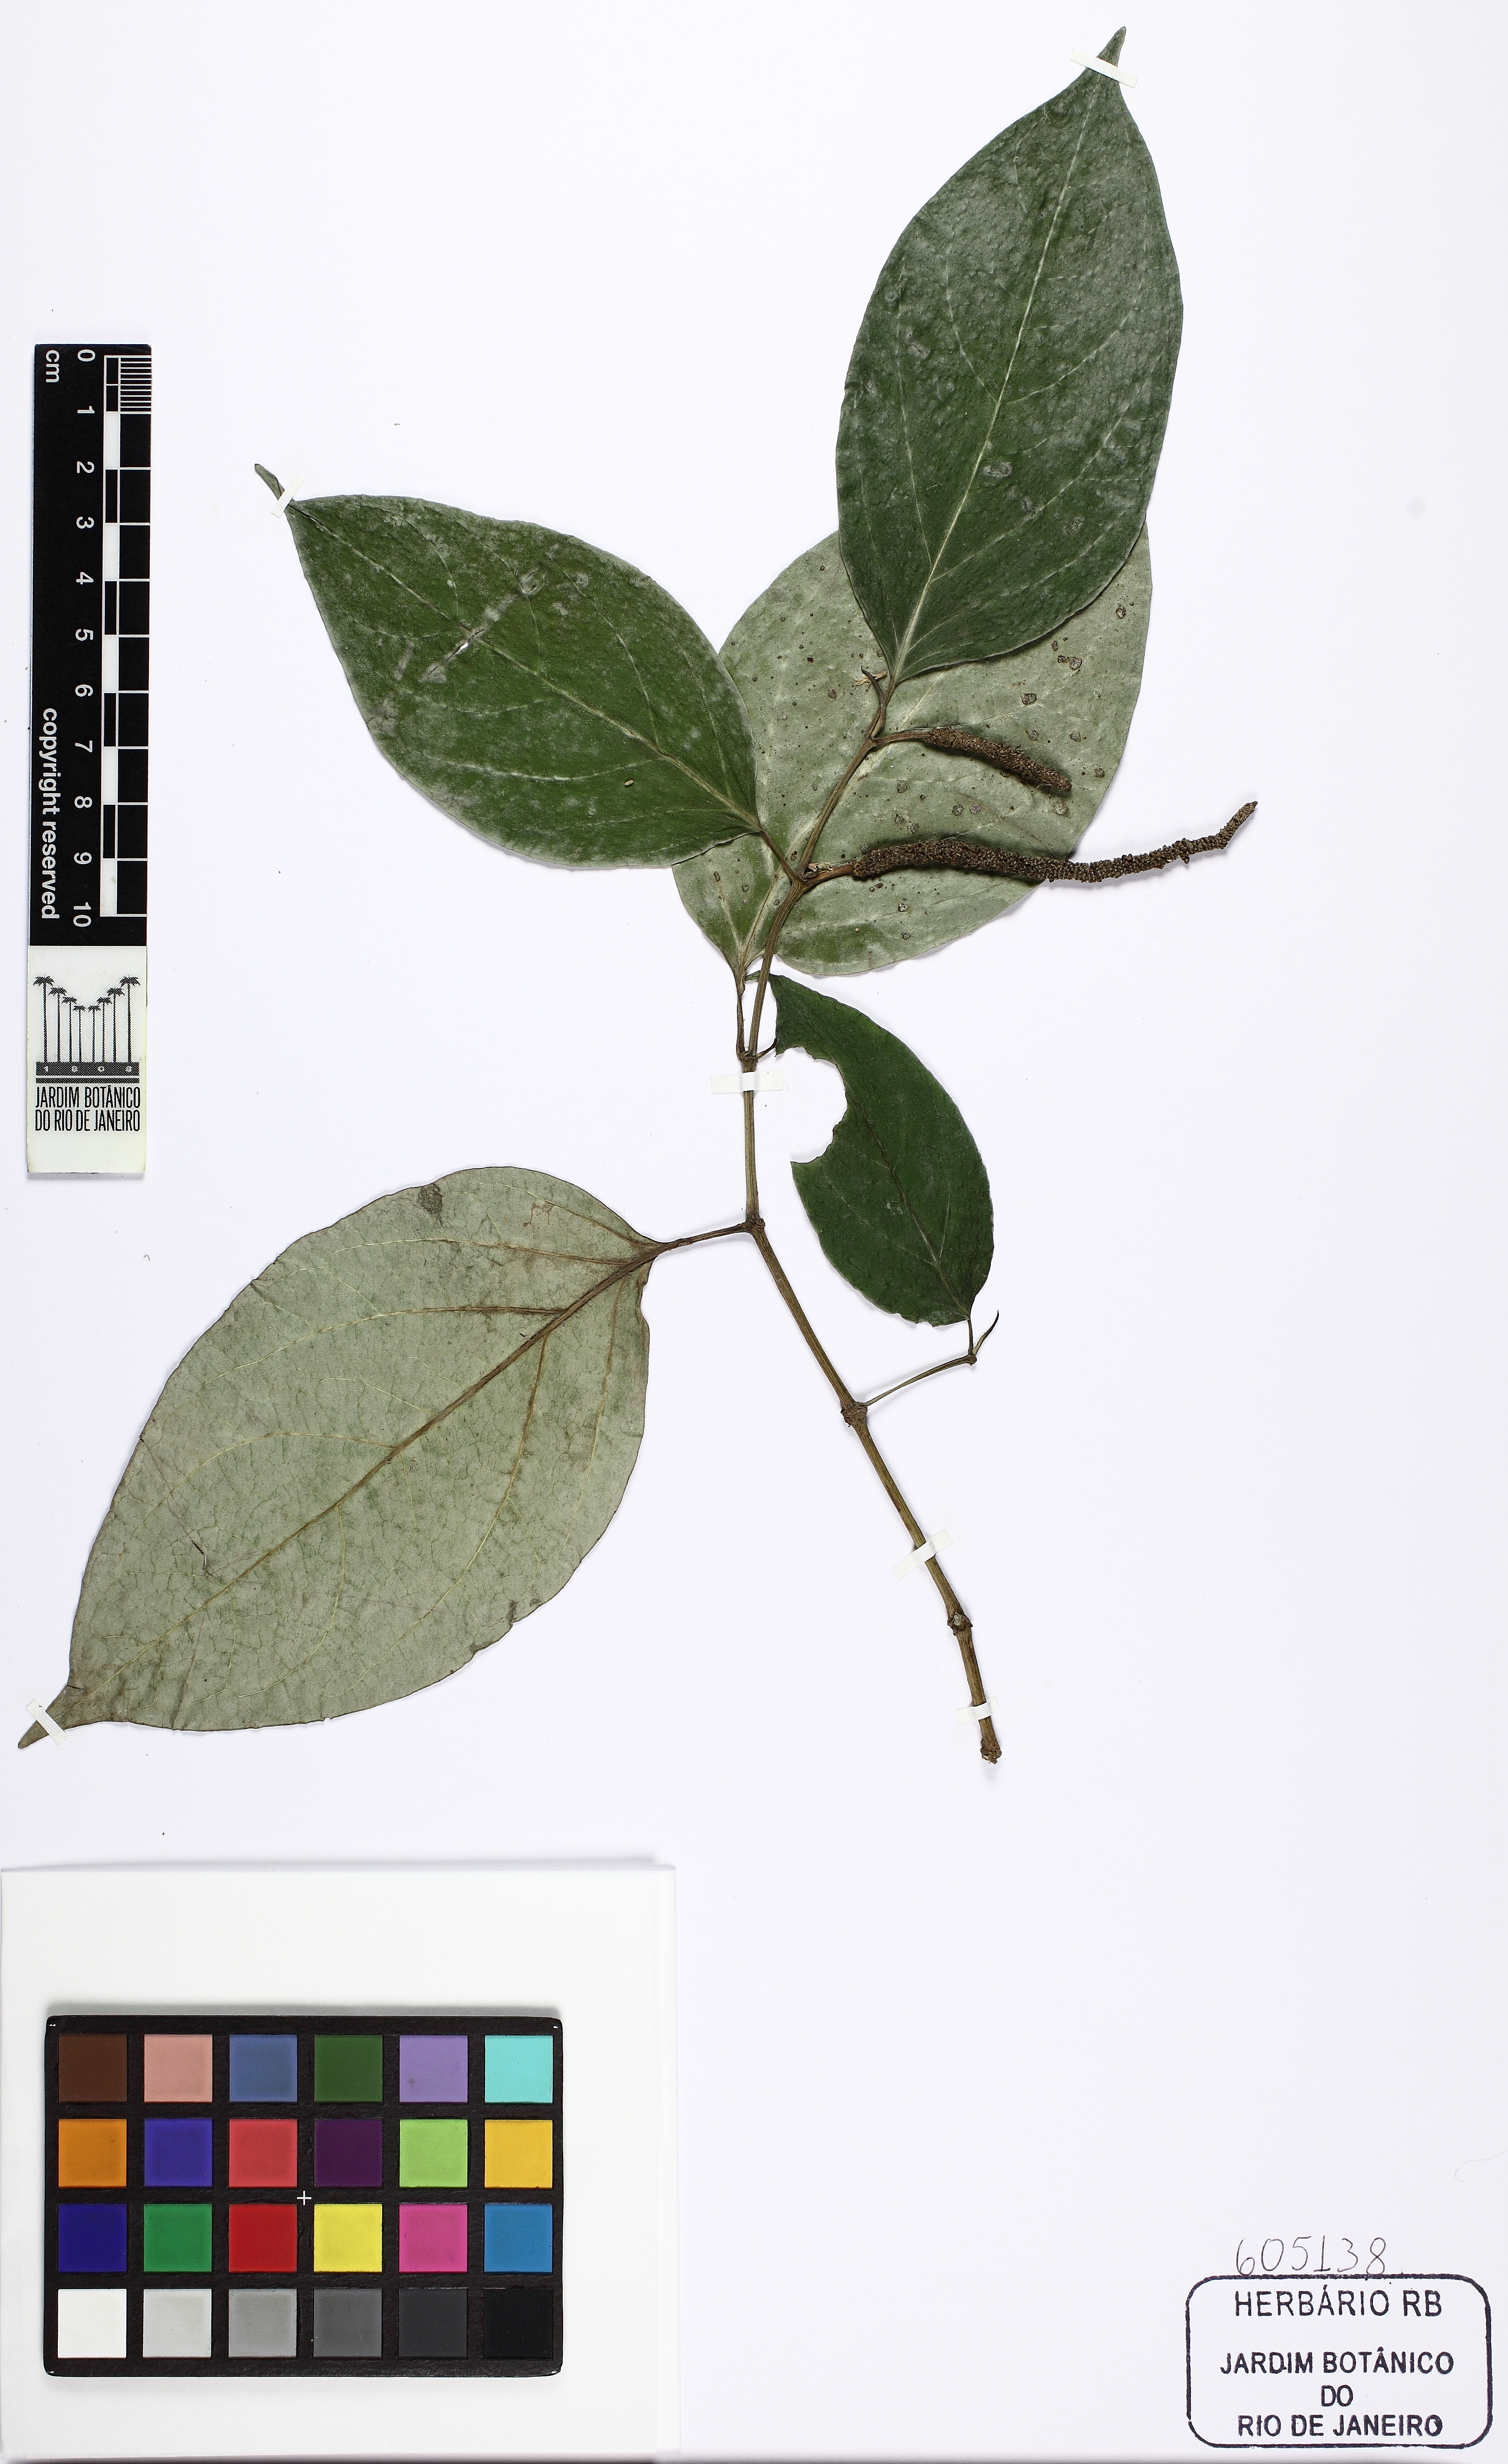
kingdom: Plantae
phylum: Tracheophyta
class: Magnoliopsida
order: Piperales
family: Piperaceae
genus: Piper
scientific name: Piper rivinoides
